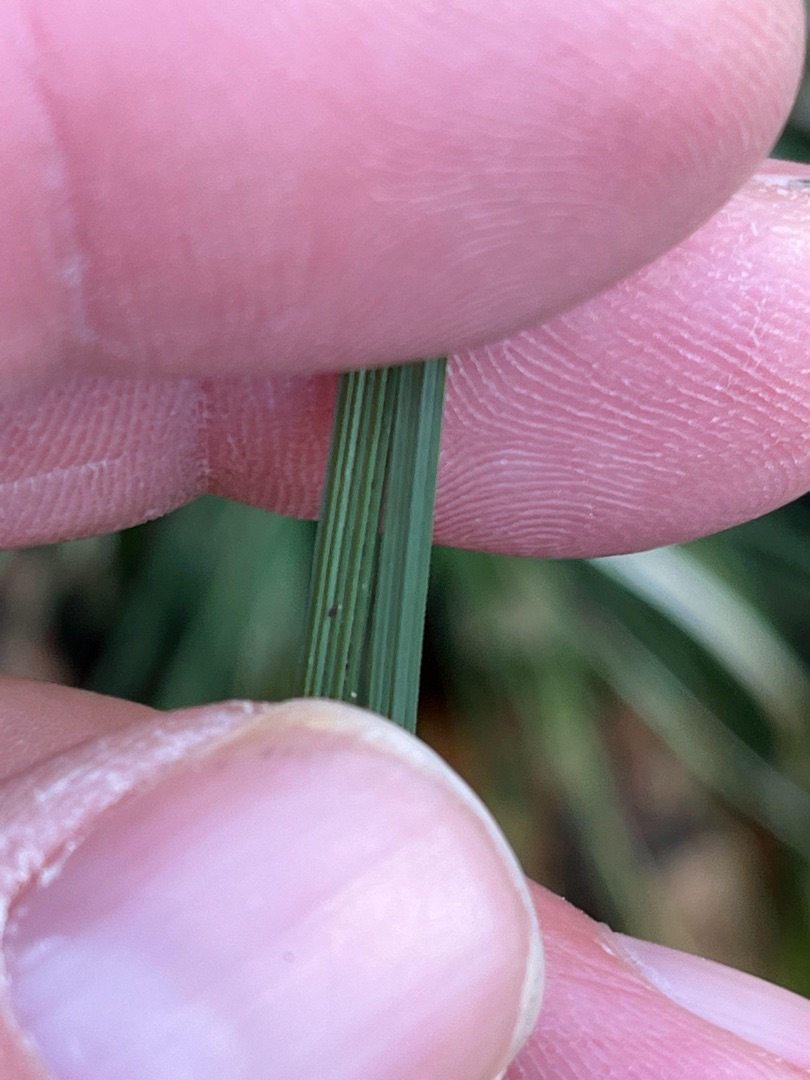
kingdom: Plantae
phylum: Tracheophyta
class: Liliopsida
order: Poales
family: Poaceae
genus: Deschampsia
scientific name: Deschampsia cespitosa
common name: Mose-bunke
